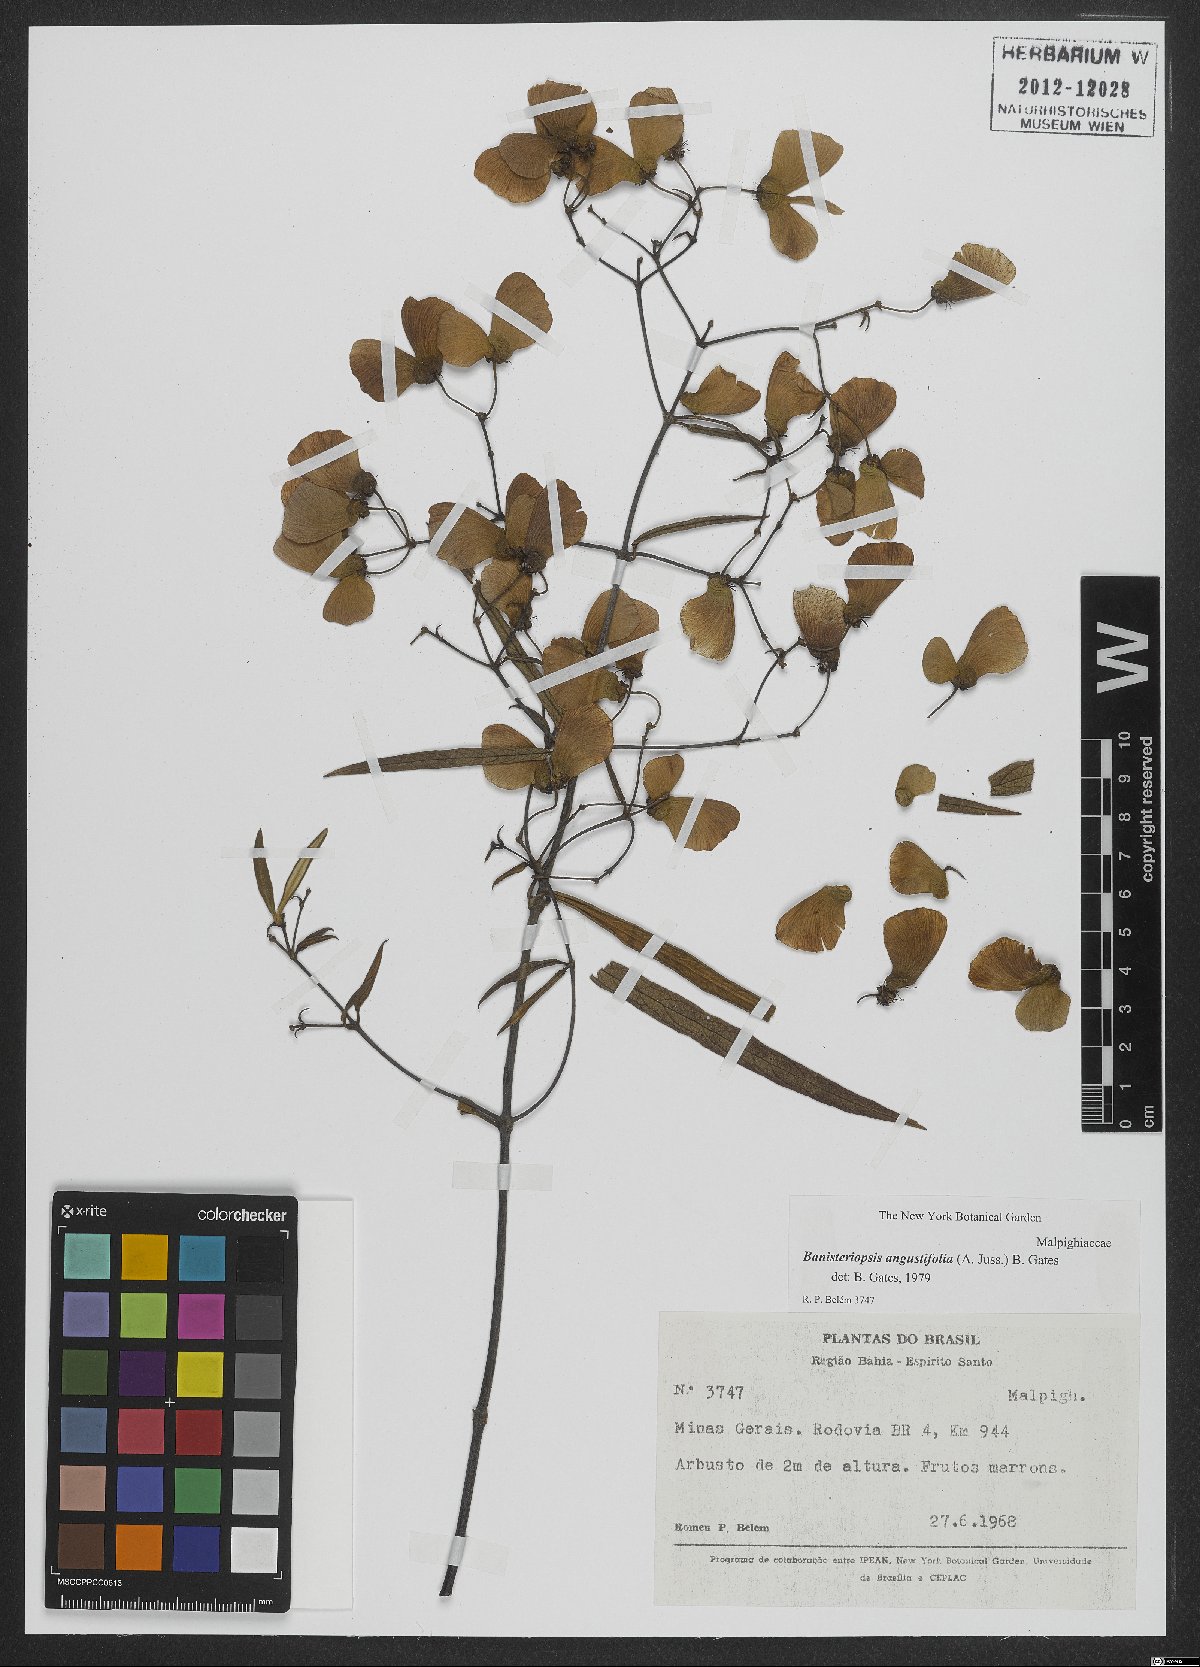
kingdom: Plantae
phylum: Tracheophyta
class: Magnoliopsida
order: Malpighiales
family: Malpighiaceae
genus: Banisteriopsis
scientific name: Banisteriopsis angustifolia
